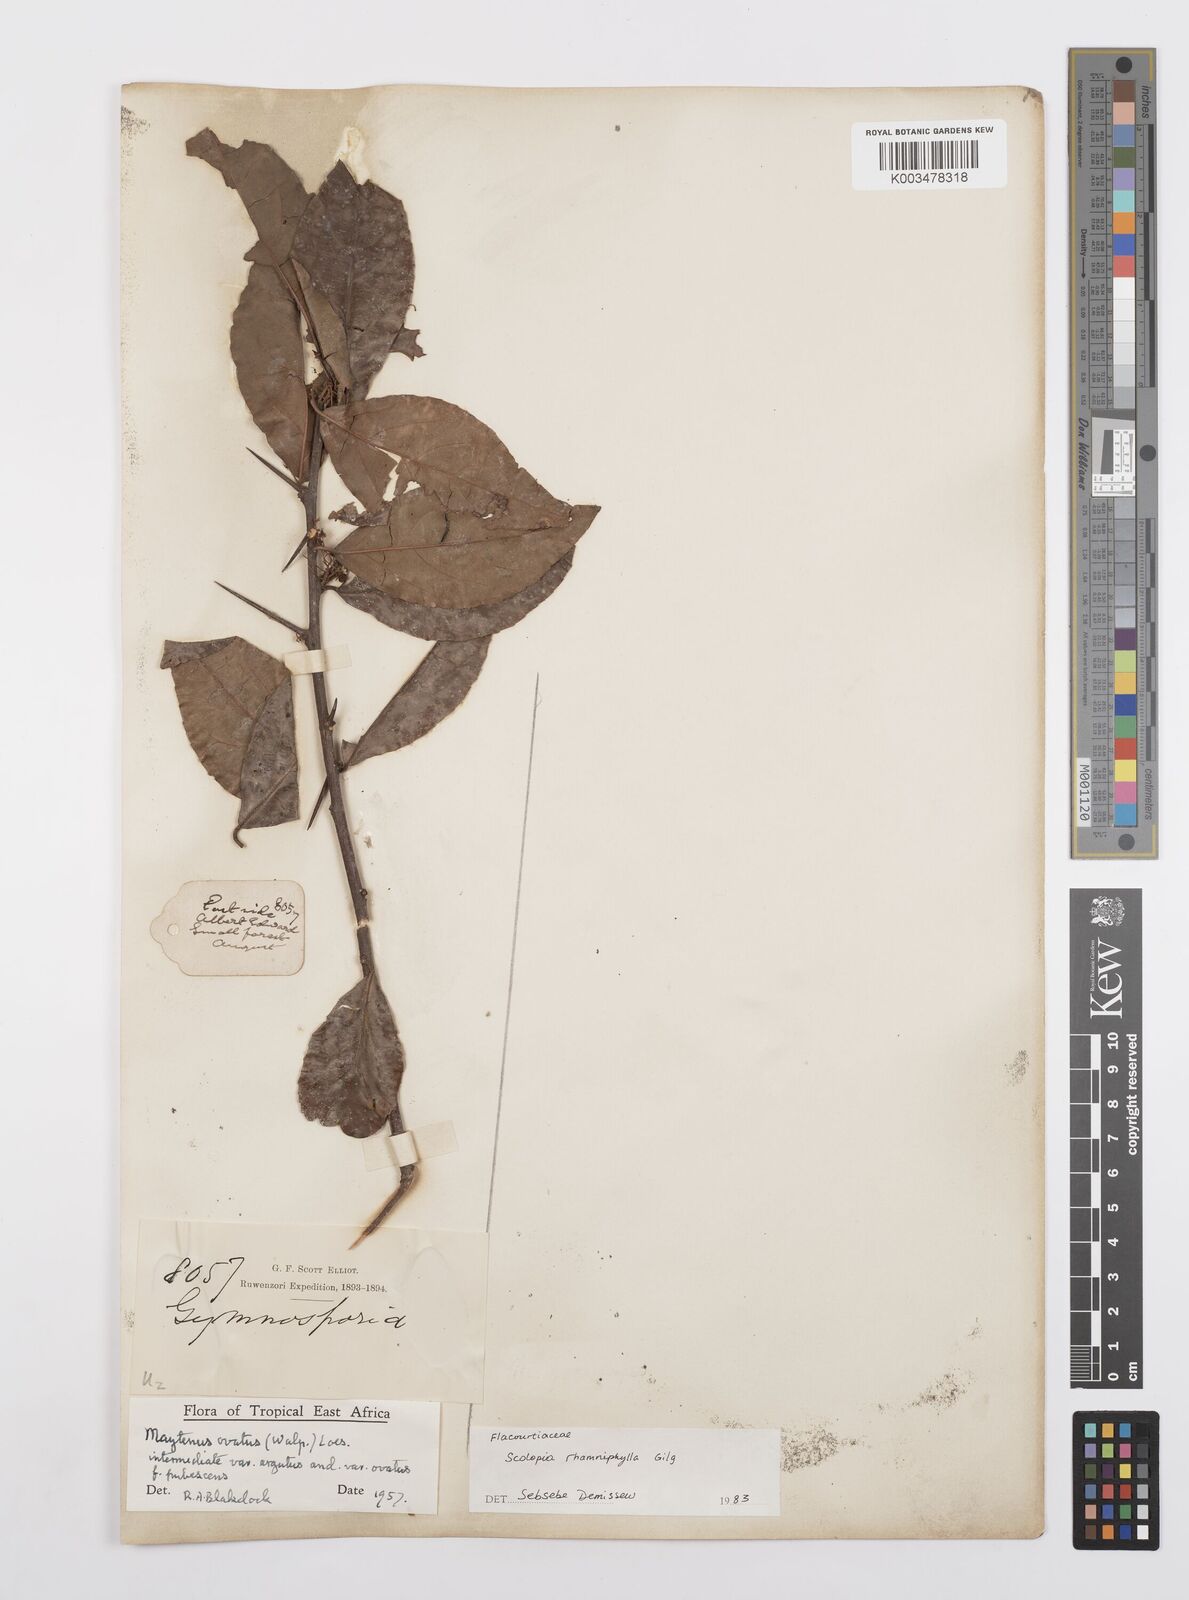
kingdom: Plantae
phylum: Tracheophyta
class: Magnoliopsida
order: Malpighiales
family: Salicaceae
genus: Scolopia
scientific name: Scolopia rhamniphylla
